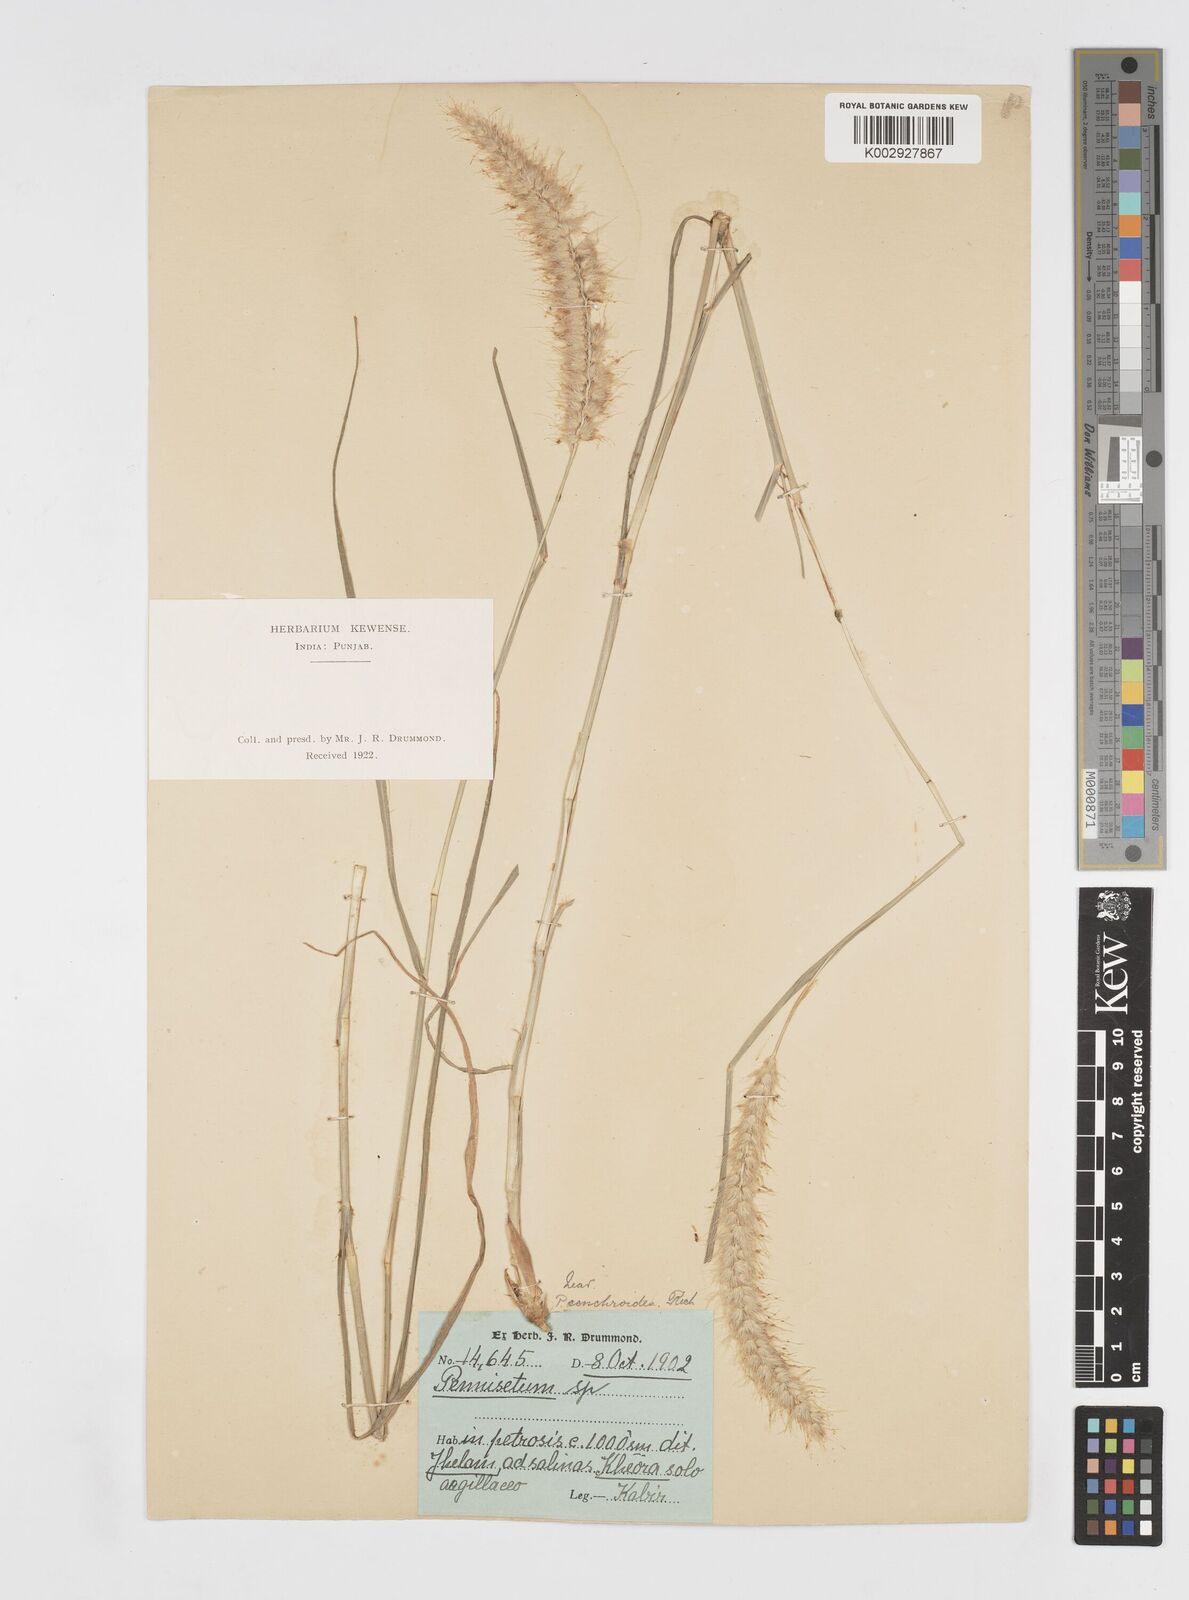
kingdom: Plantae
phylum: Tracheophyta
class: Liliopsida
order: Poales
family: Poaceae
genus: Cenchrus
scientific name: Cenchrus ciliaris
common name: Buffelgrass
